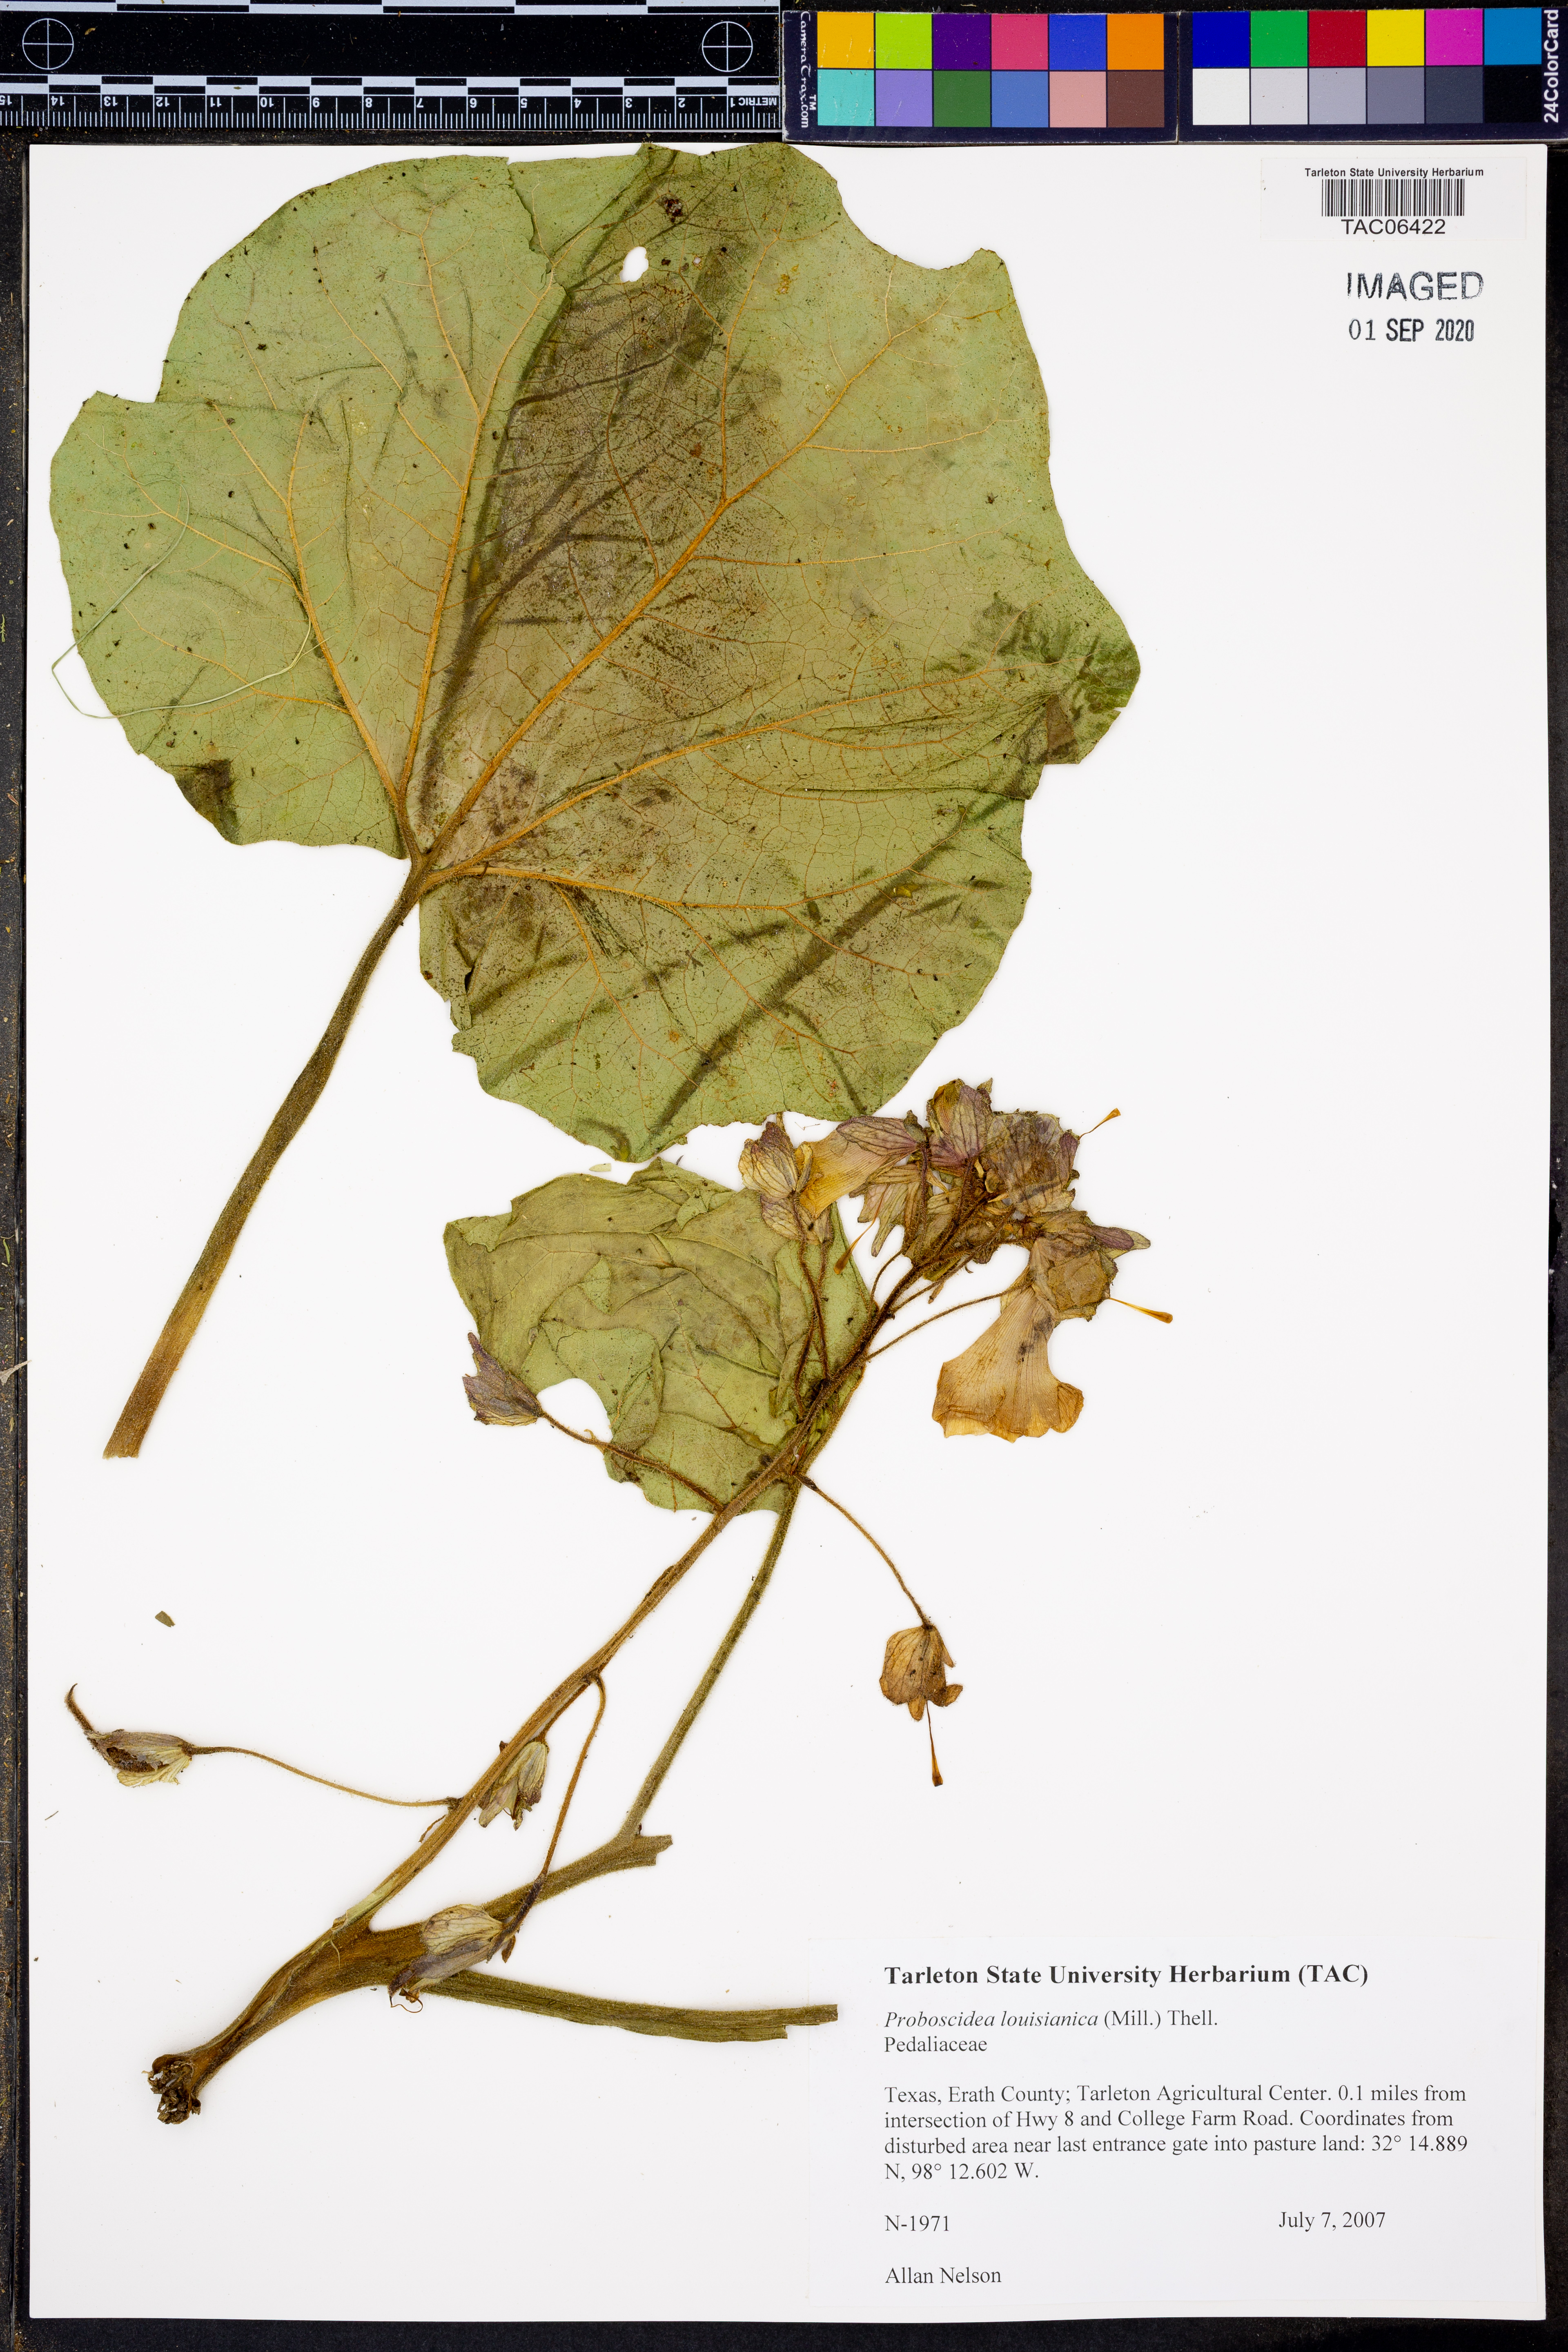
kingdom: Plantae
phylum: Tracheophyta
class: Magnoliopsida
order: Lamiales
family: Martyniaceae
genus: Proboscidea
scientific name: Proboscidea louisianica
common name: Elephant tusks
